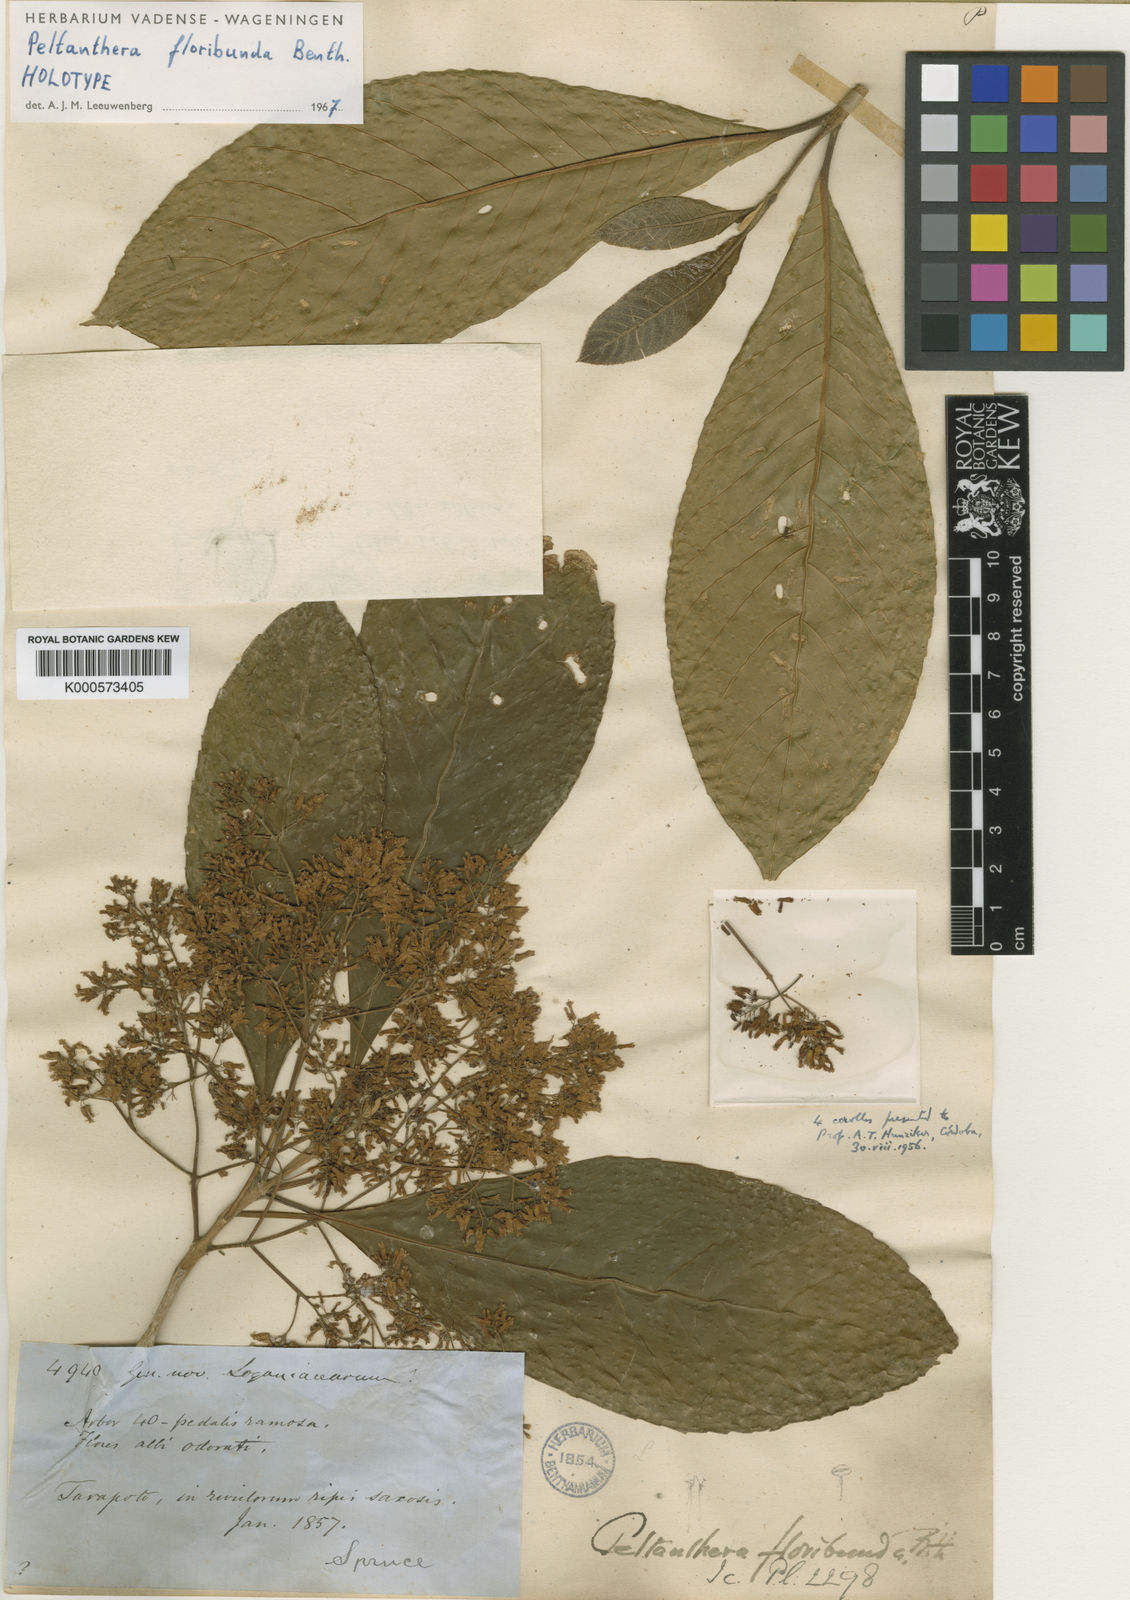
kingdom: Plantae
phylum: Tracheophyta
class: Magnoliopsida
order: Lamiales
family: Peltantheraceae
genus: Peltanthera
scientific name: Peltanthera floribunda
